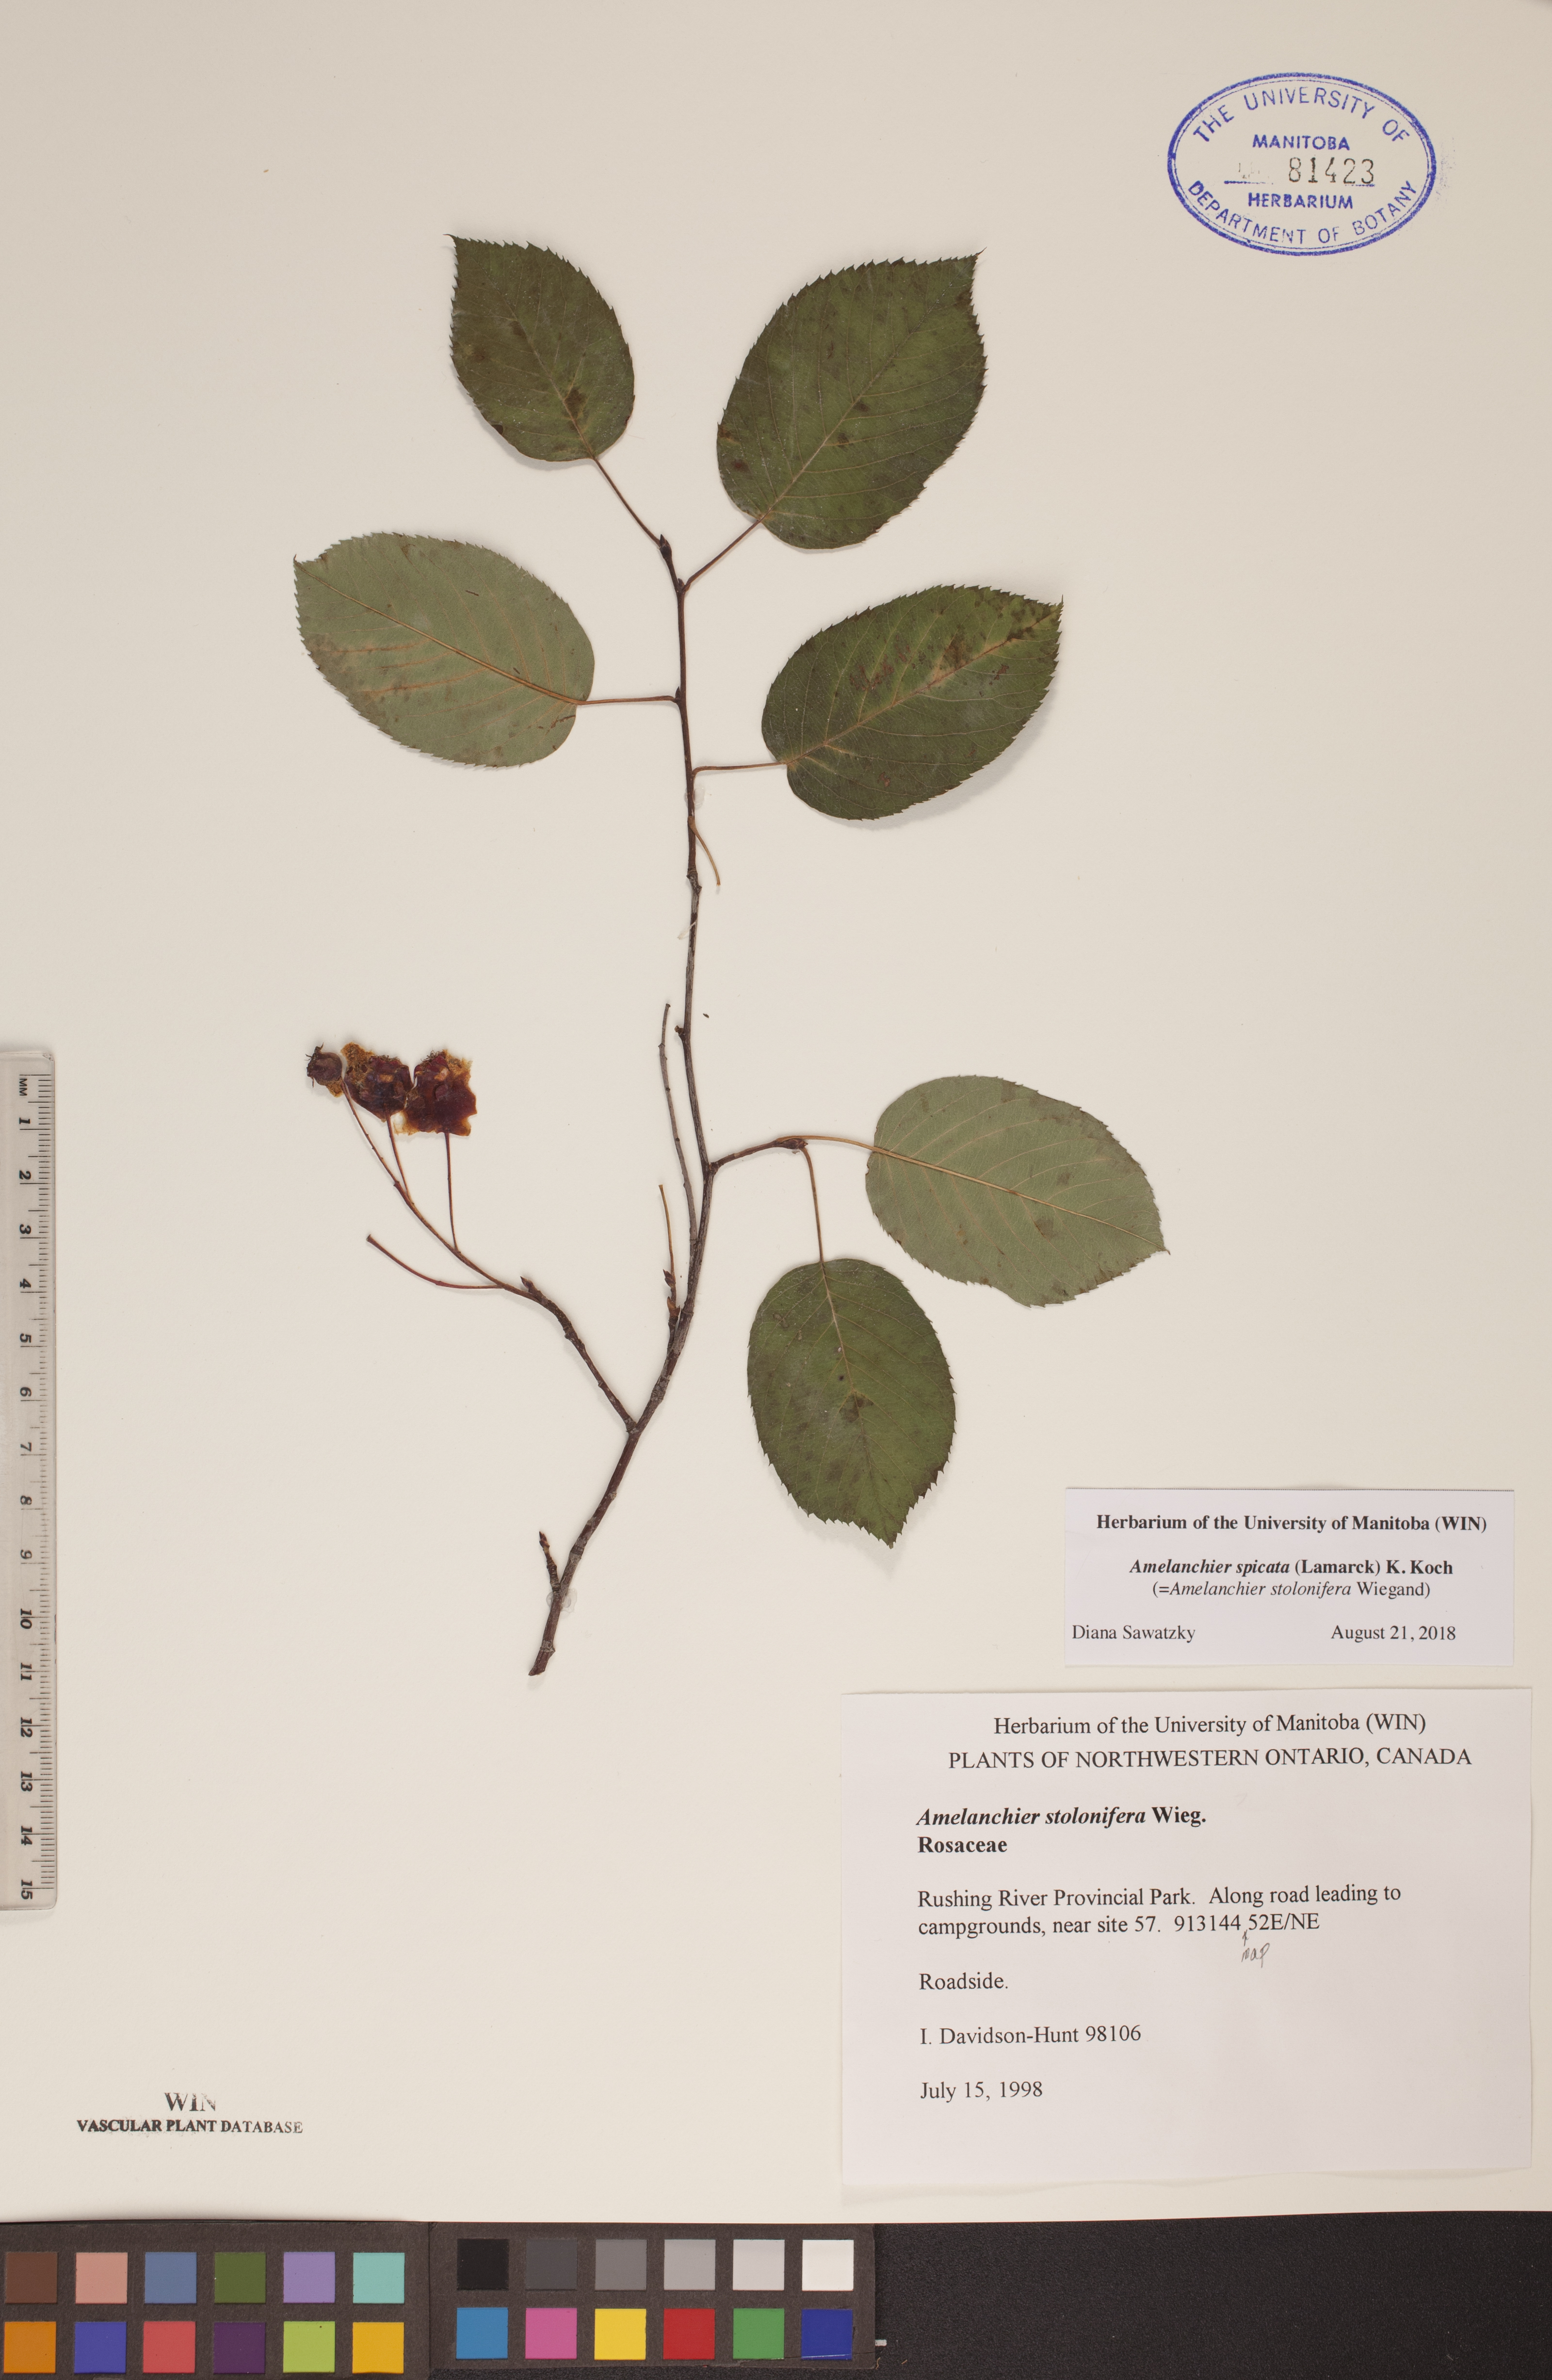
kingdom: Plantae
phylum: Tracheophyta
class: Magnoliopsida
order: Rosales
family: Rosaceae
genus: Amelanchier
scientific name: Amelanchier humilis
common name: Low juneberry
